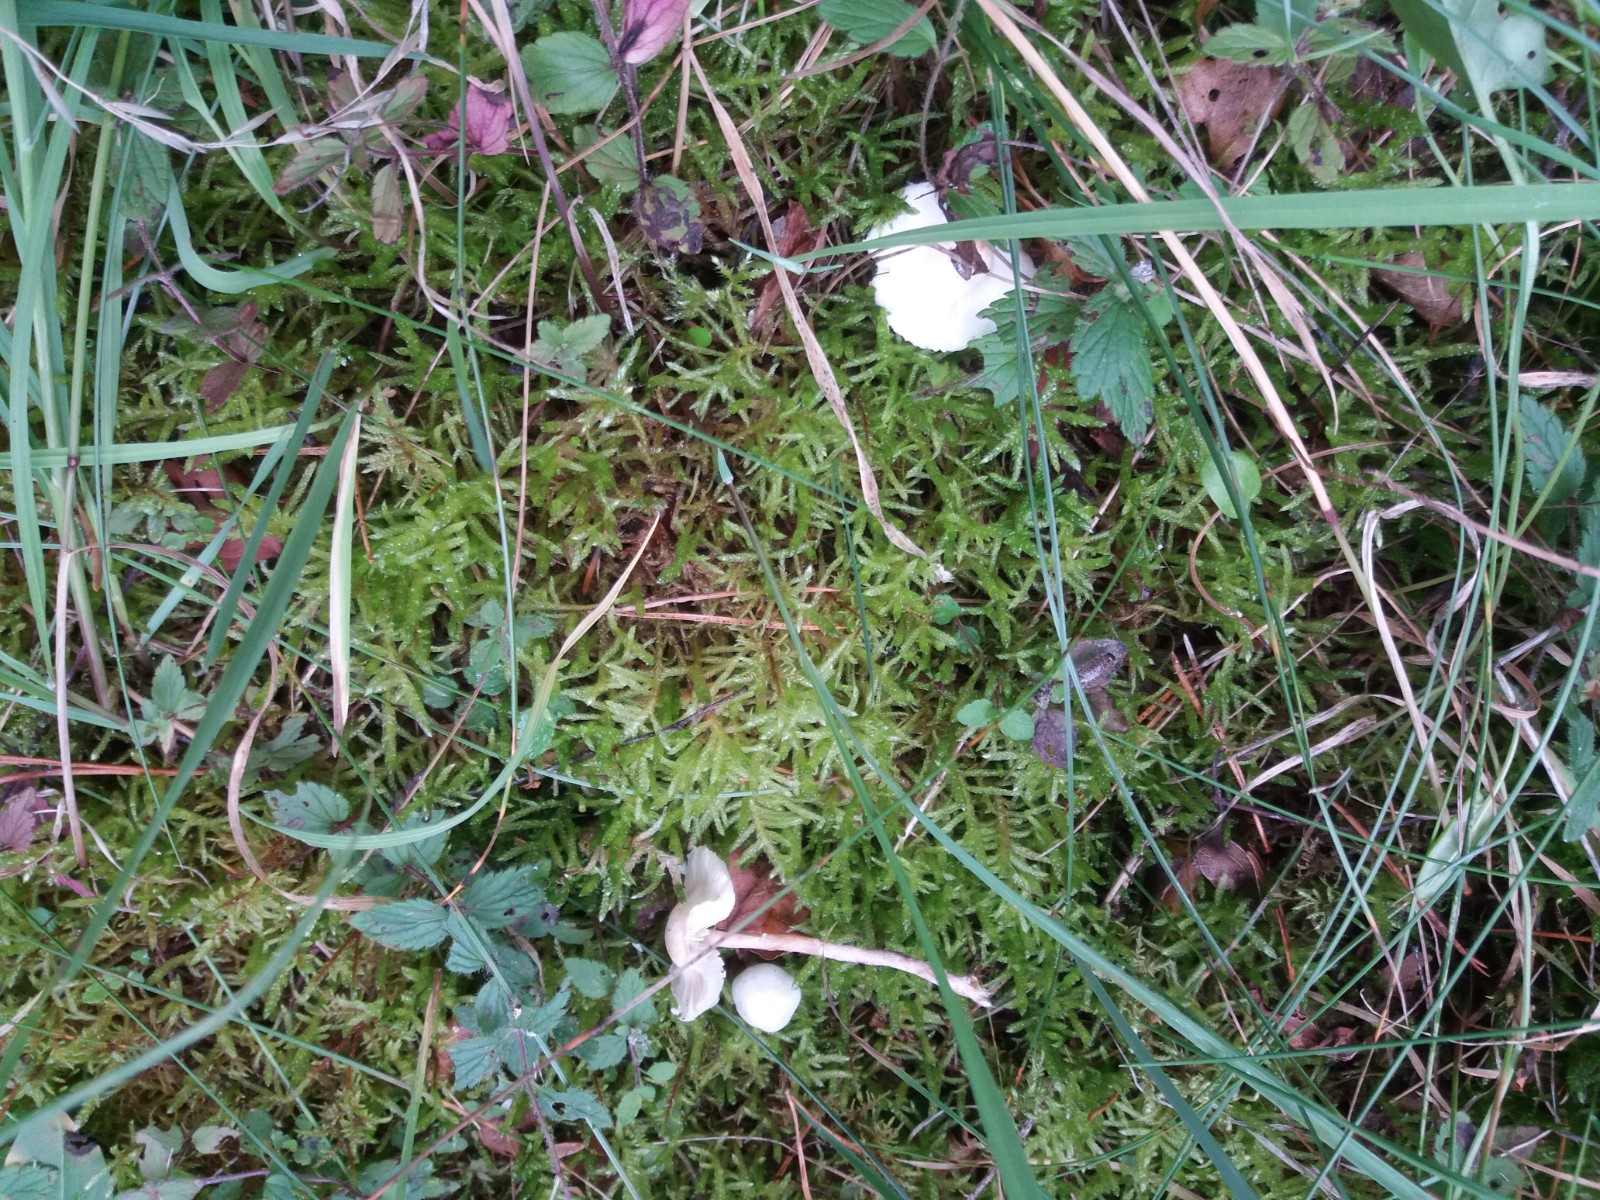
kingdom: Fungi
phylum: Basidiomycota
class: Agaricomycetes
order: Agaricales
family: Agaricaceae
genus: Lepiota
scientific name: Lepiota subalba
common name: hvidlig parasolhat
